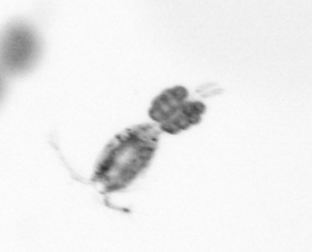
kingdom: Animalia
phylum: Arthropoda
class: Copepoda
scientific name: Copepoda
